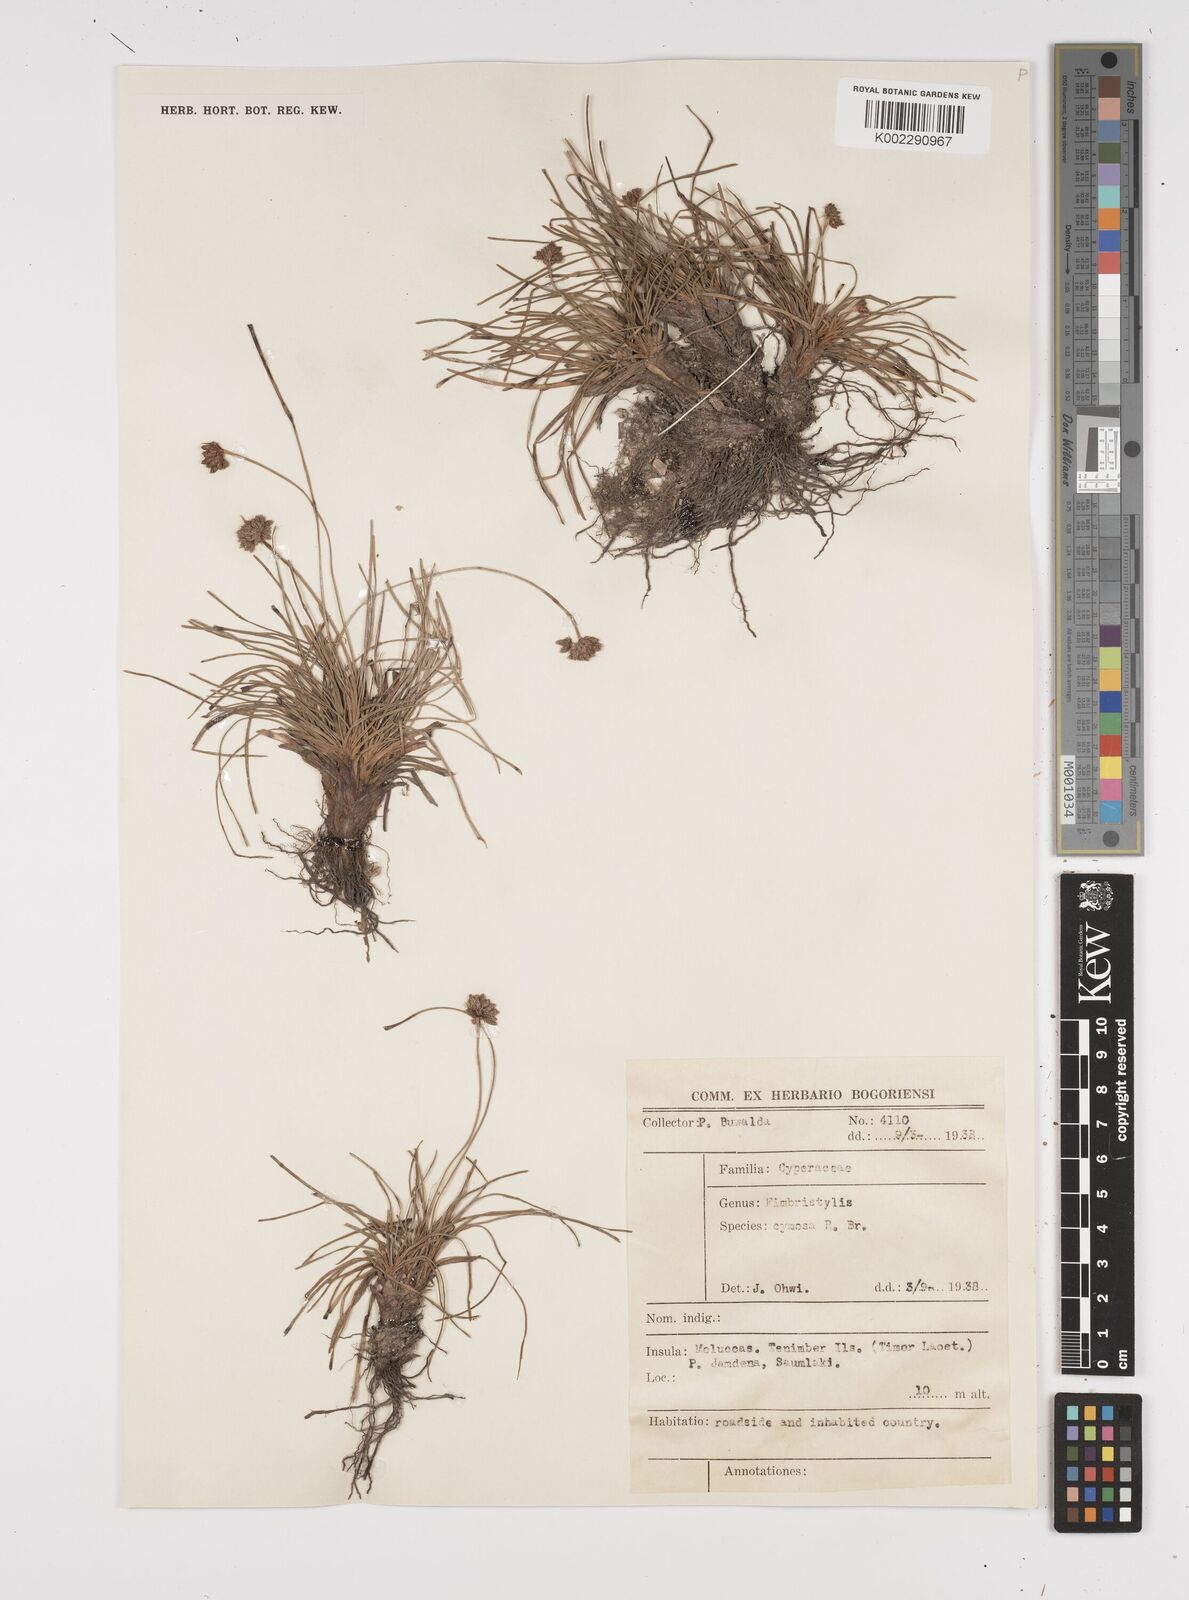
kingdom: Plantae
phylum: Tracheophyta
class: Liliopsida
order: Poales
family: Cyperaceae
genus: Fimbristylis
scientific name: Fimbristylis cymosa
